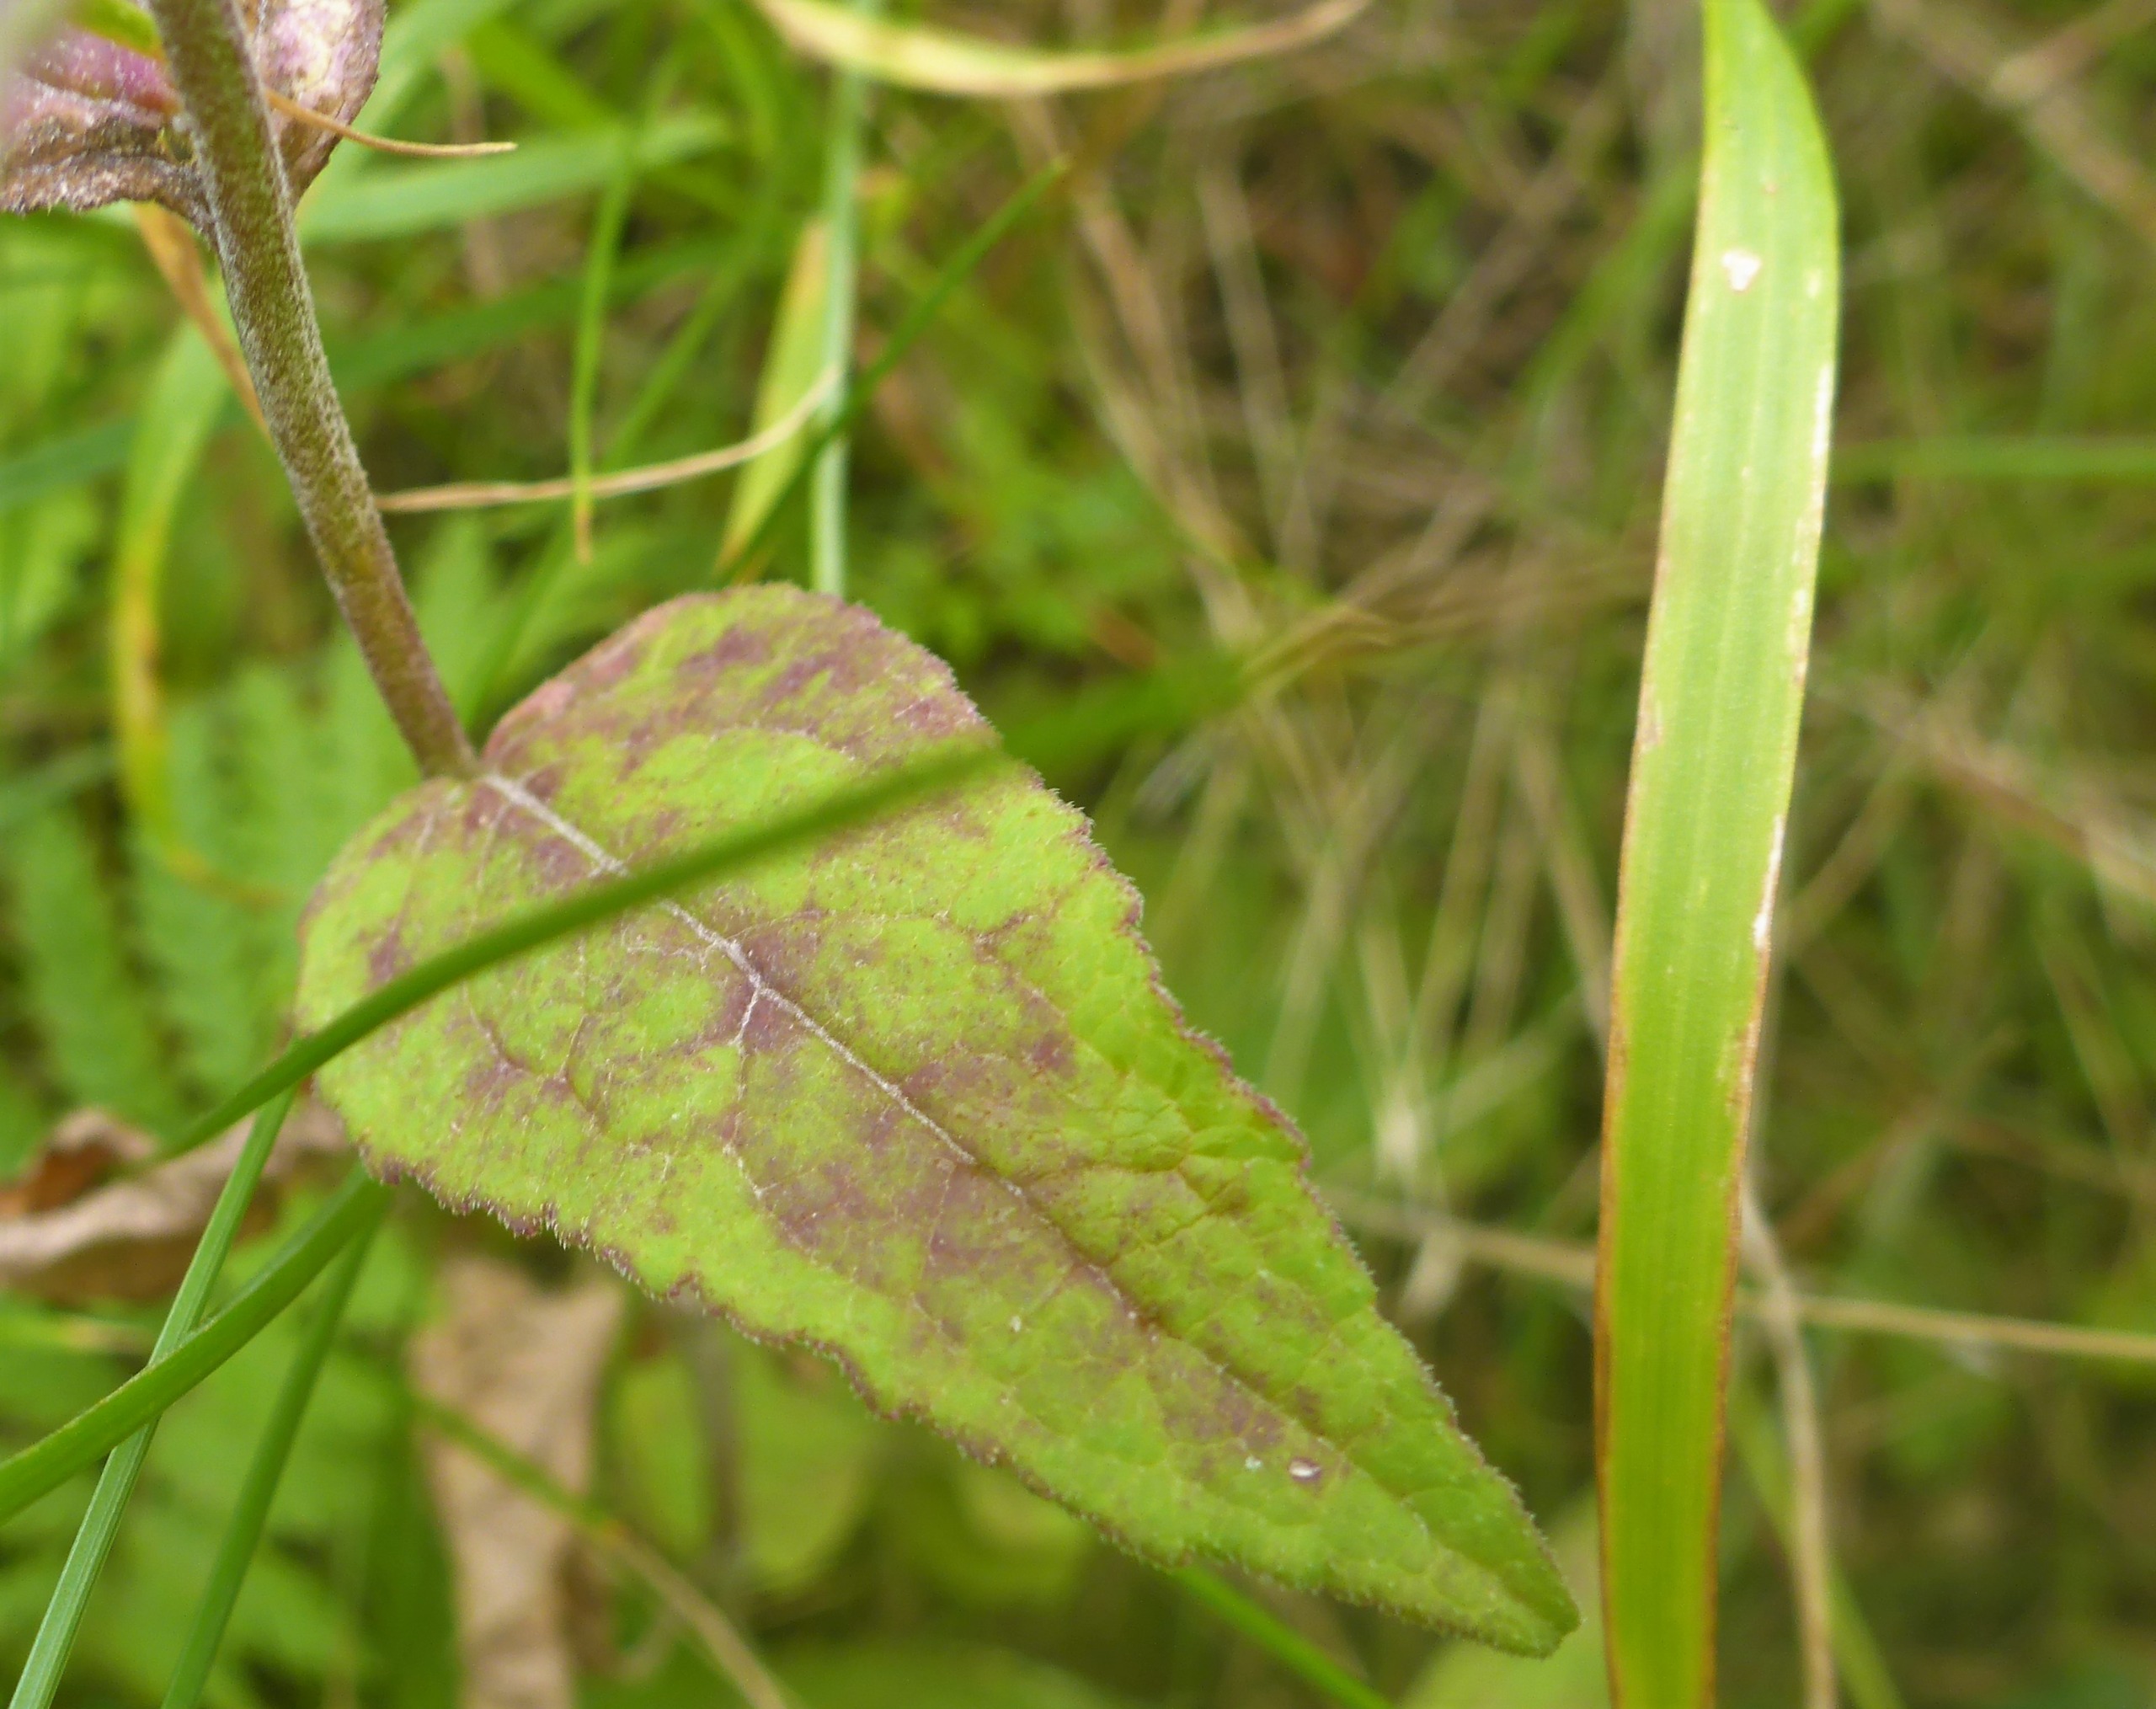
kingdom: Plantae
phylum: Tracheophyta
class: Magnoliopsida
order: Asterales
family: Campanulaceae
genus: Campanula
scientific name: Campanula rapunculoides
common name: Ensidig klokke
